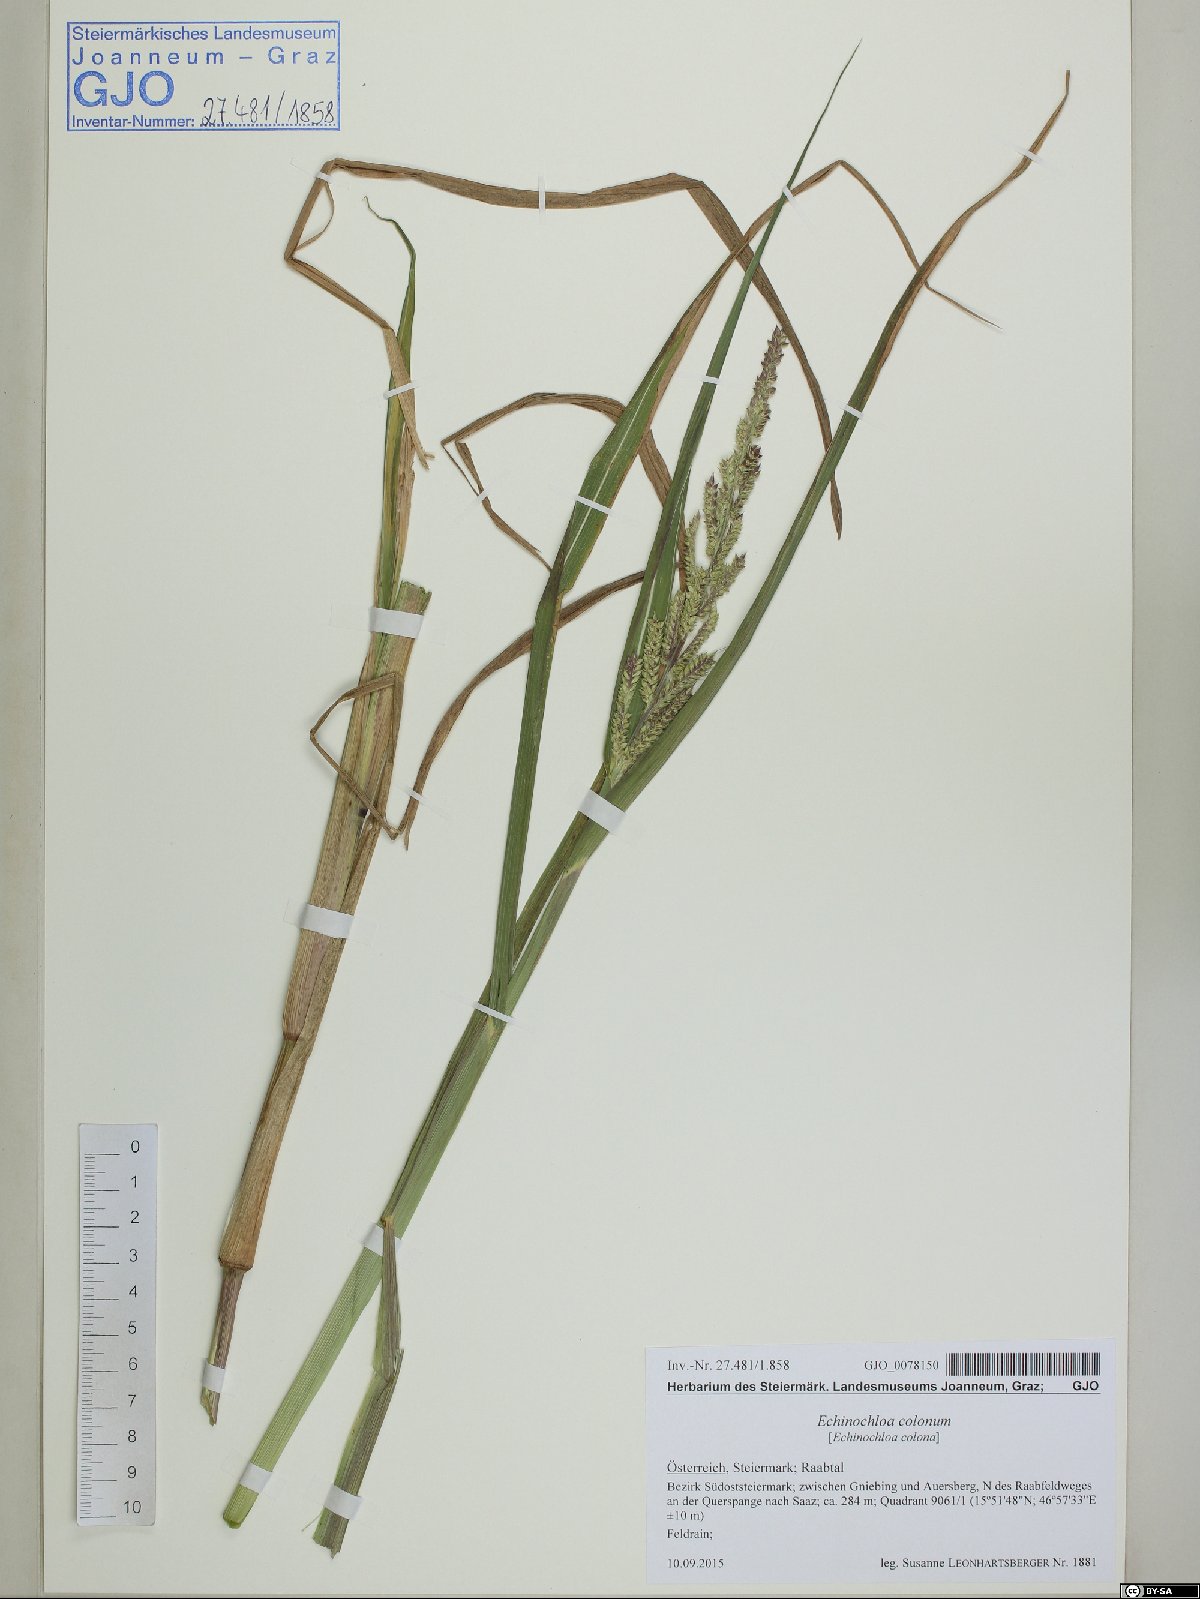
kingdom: Plantae
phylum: Tracheophyta
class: Liliopsida
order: Poales
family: Poaceae
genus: Echinochloa
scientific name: Echinochloa crus-galli
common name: Cockspur
